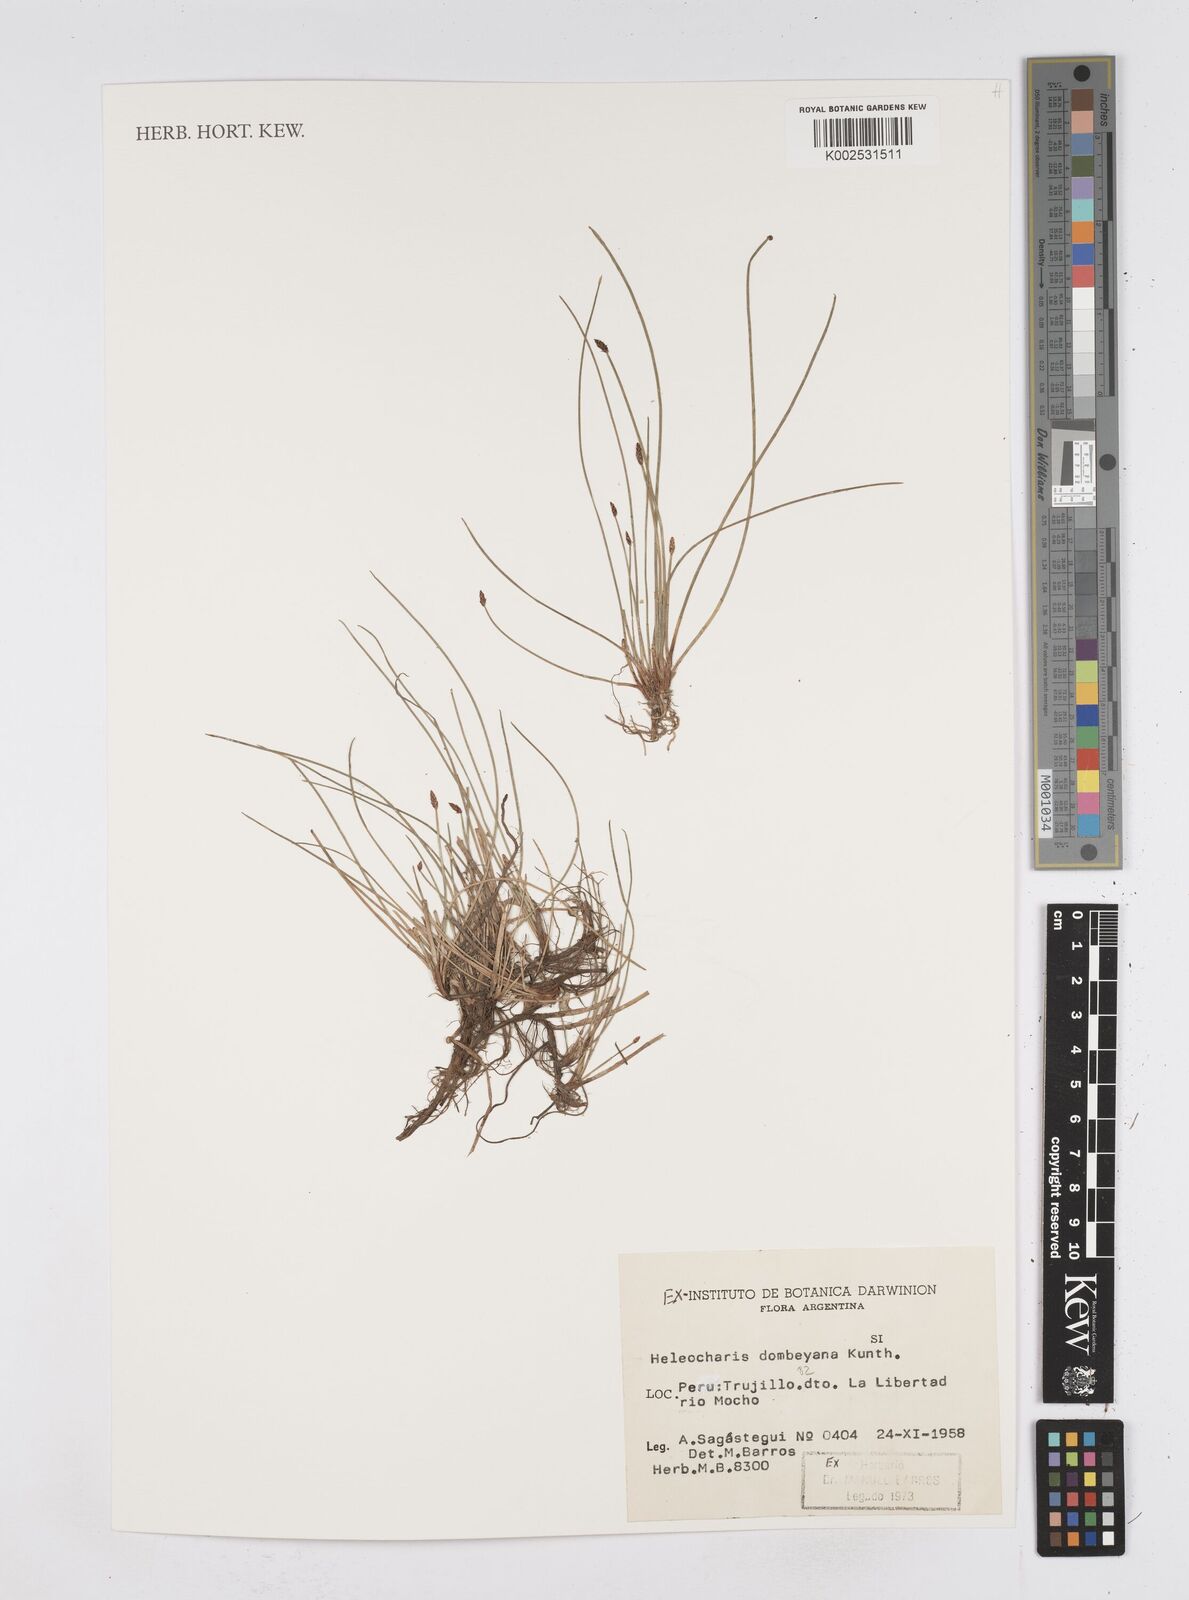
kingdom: Plantae
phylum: Tracheophyta
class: Liliopsida
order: Poales
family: Cyperaceae
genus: Eleocharis
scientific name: Eleocharis dombeyana
